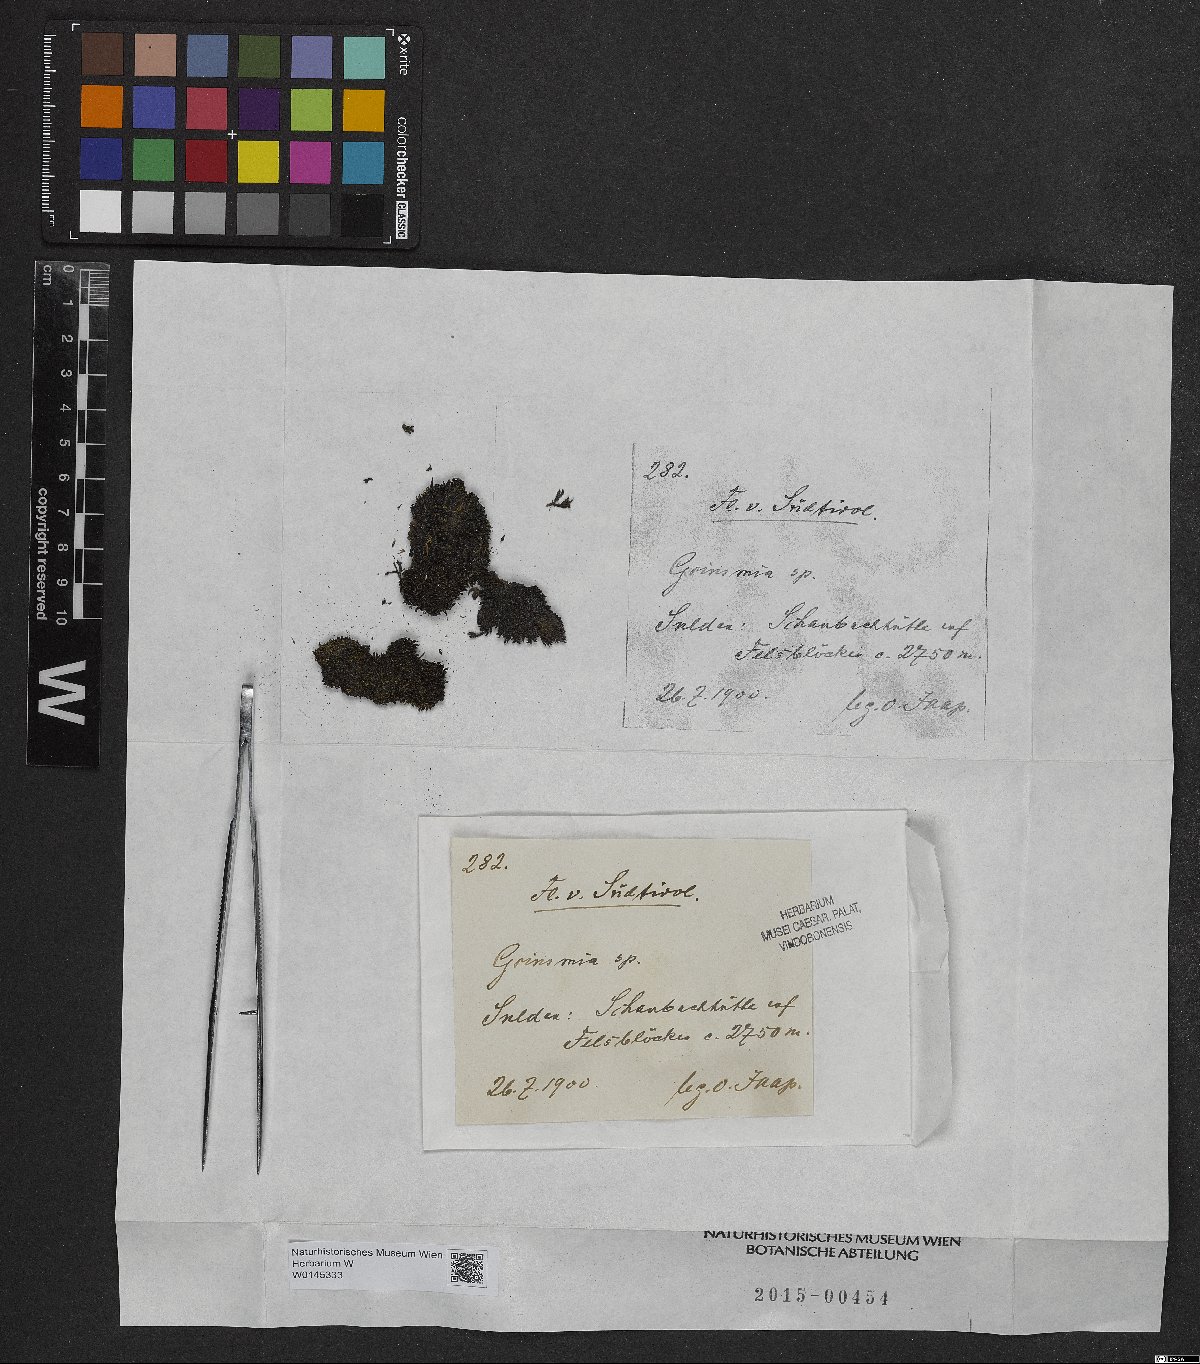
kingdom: Plantae
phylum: Bryophyta
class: Bryopsida
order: Grimmiales
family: Grimmiaceae
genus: Grimmia
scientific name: Grimmia
